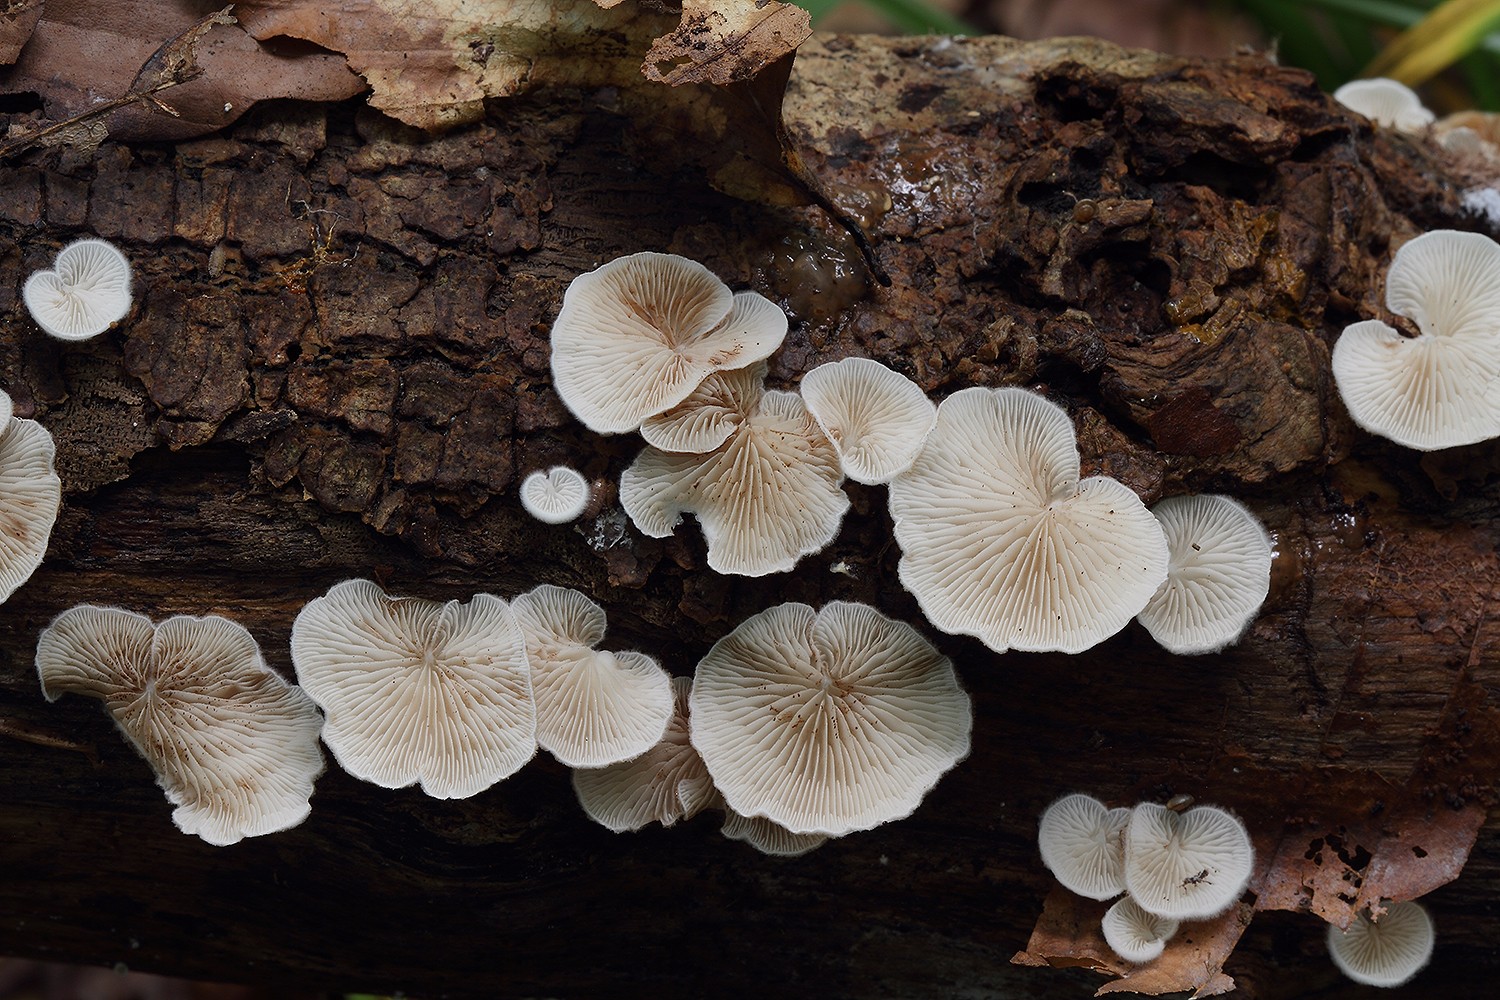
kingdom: Fungi
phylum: Basidiomycota
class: Agaricomycetes
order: Agaricales
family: Crepidotaceae
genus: Crepidotus
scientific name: Crepidotus variabilis
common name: forskelligformet muslingesvamp
